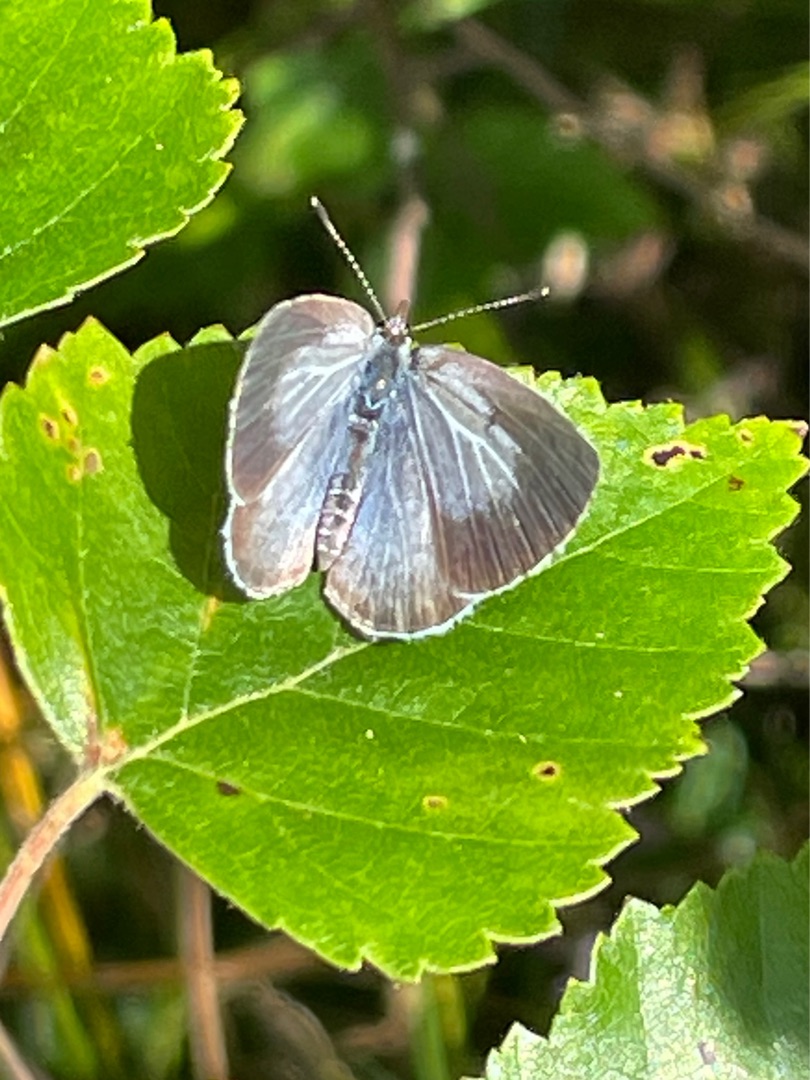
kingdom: Animalia
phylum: Arthropoda
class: Insecta
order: Lepidoptera
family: Lycaenidae
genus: Celastrina
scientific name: Celastrina argiolus
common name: Skovblåfugl
